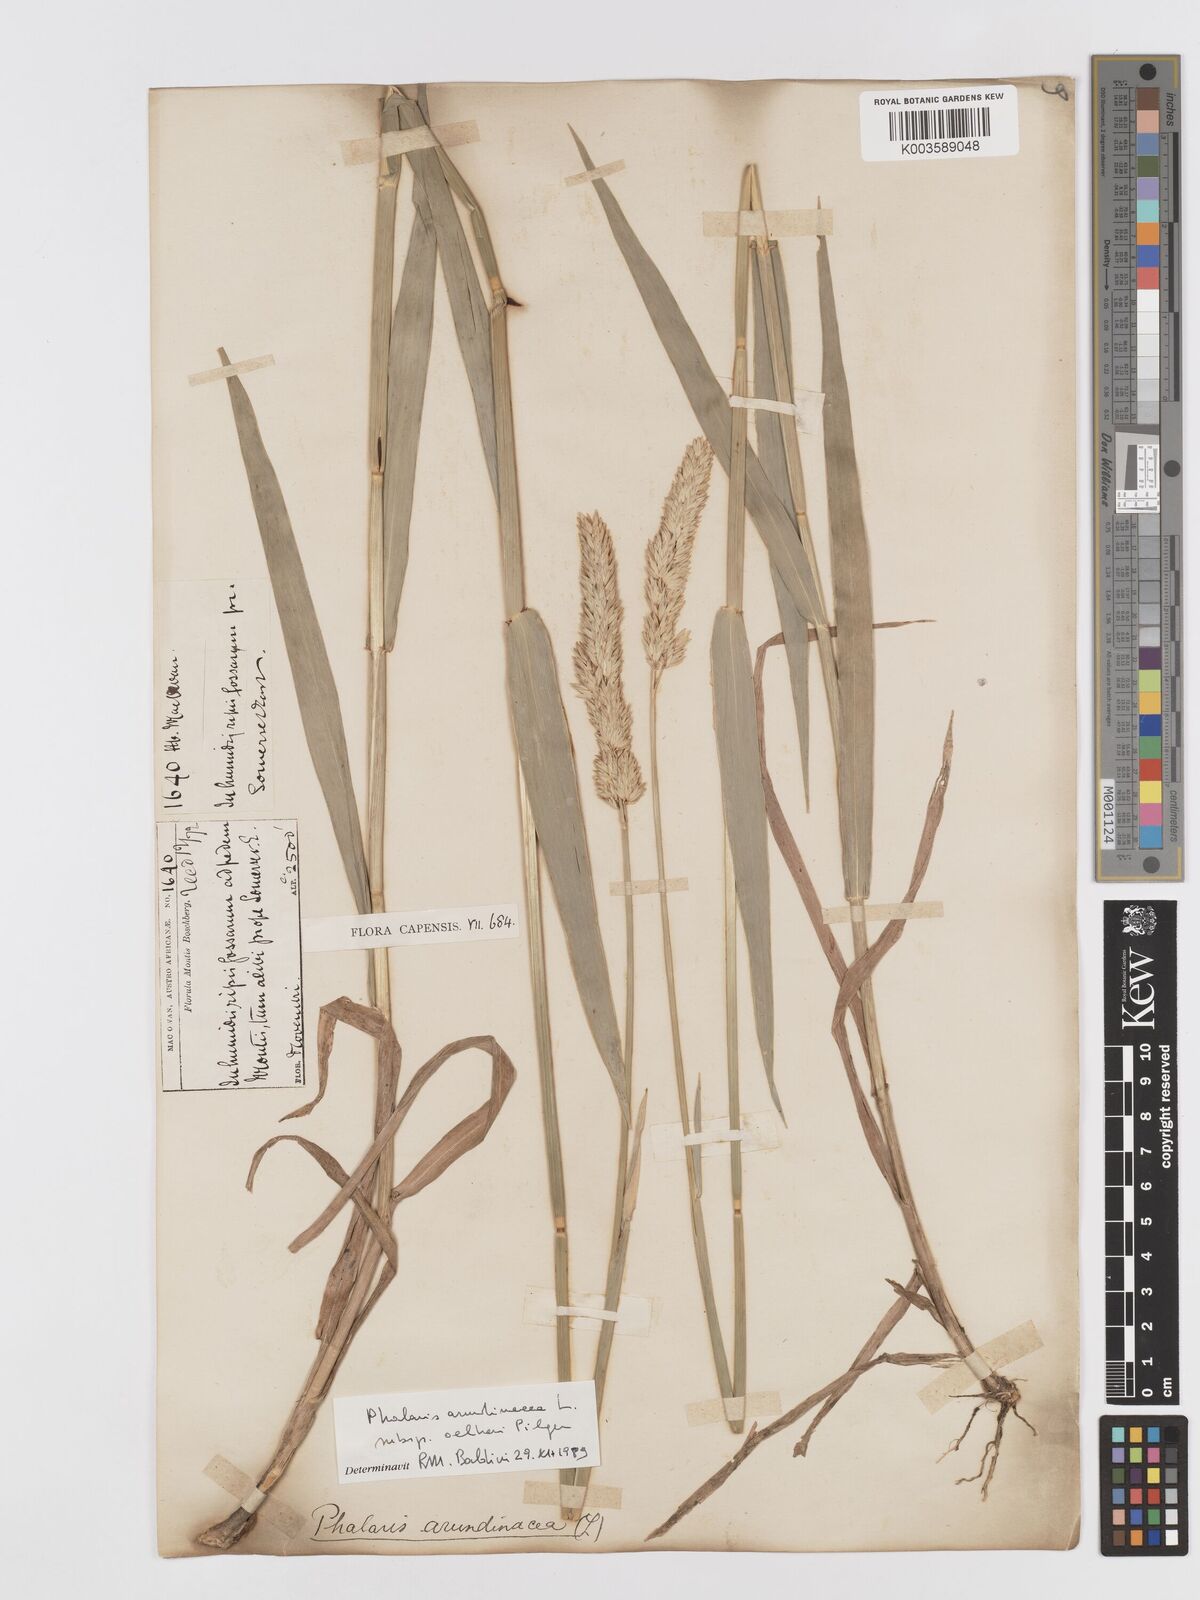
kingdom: Plantae
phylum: Tracheophyta
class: Liliopsida
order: Poales
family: Poaceae
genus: Phalaris
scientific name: Phalaris arundinacea
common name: Reed canary-grass
